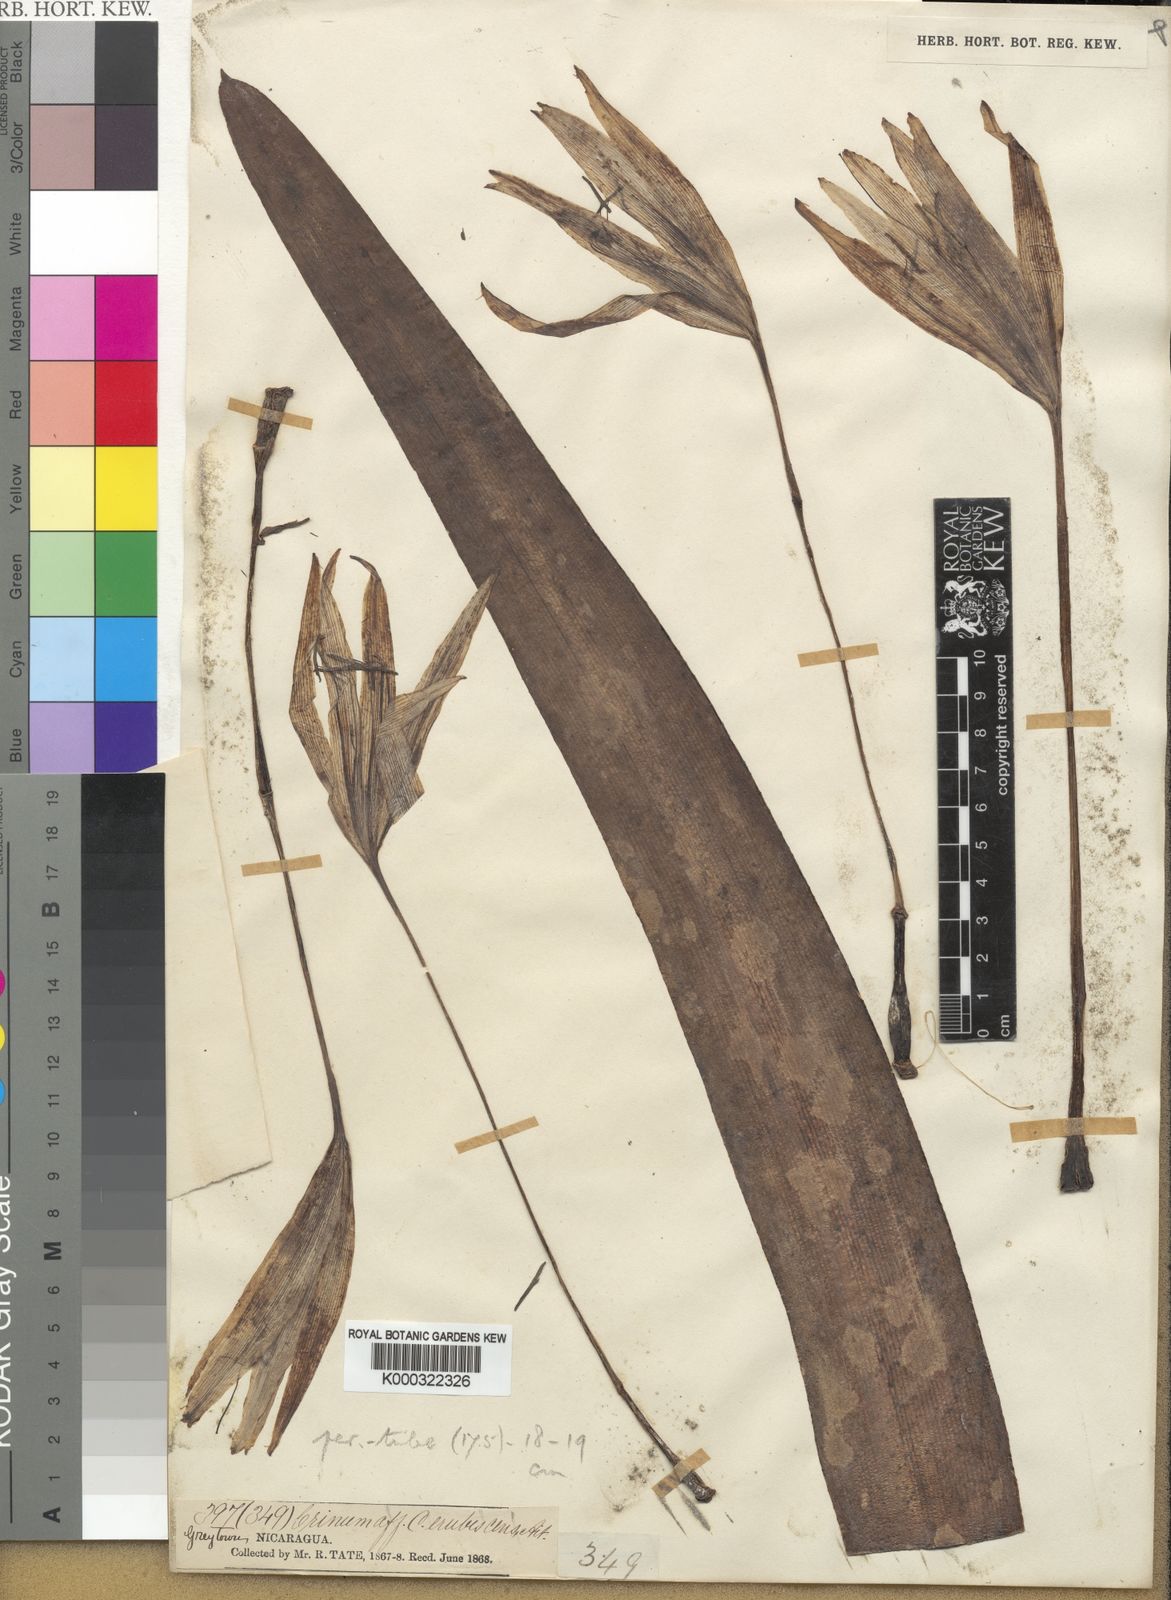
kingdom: Plantae
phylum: Tracheophyta
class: Liliopsida
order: Asparagales
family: Amaryllidaceae
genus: Crinum
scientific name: Crinum kunthianum
